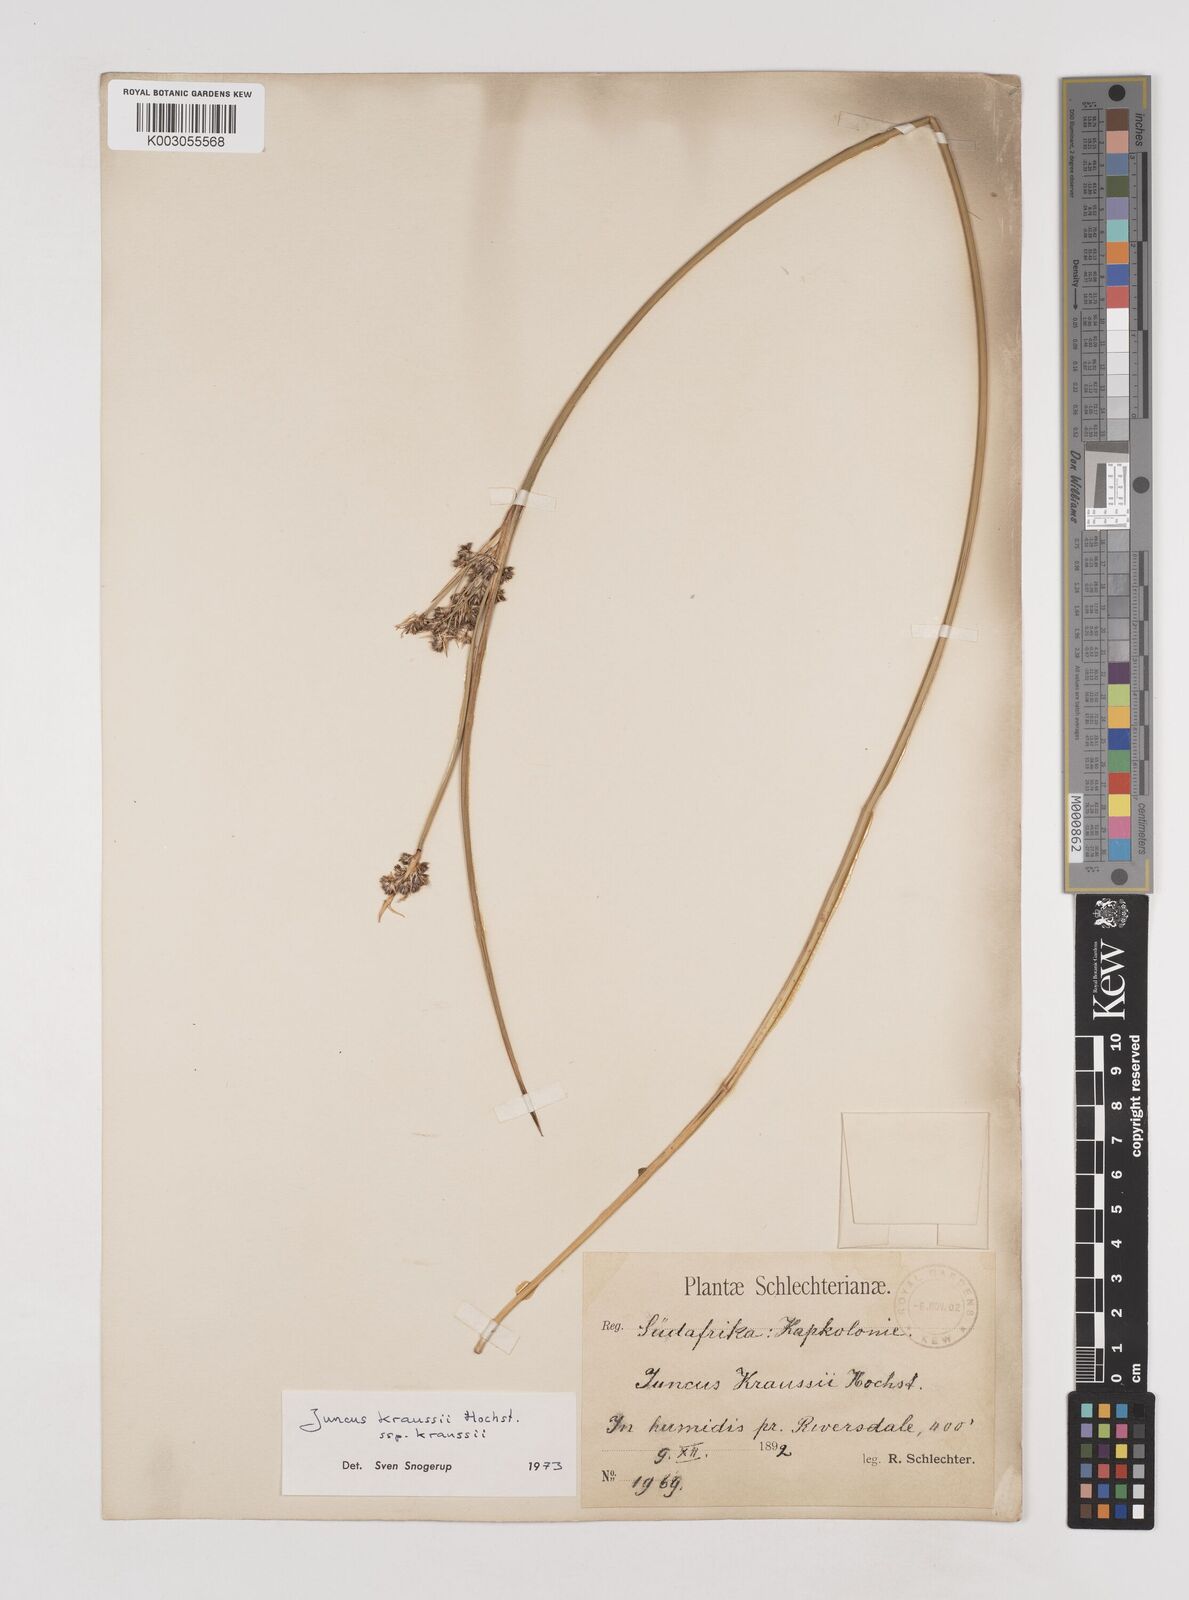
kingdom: Plantae
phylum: Tracheophyta
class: Liliopsida
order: Poales
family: Juncaceae
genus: Juncus
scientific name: Juncus kraussii
